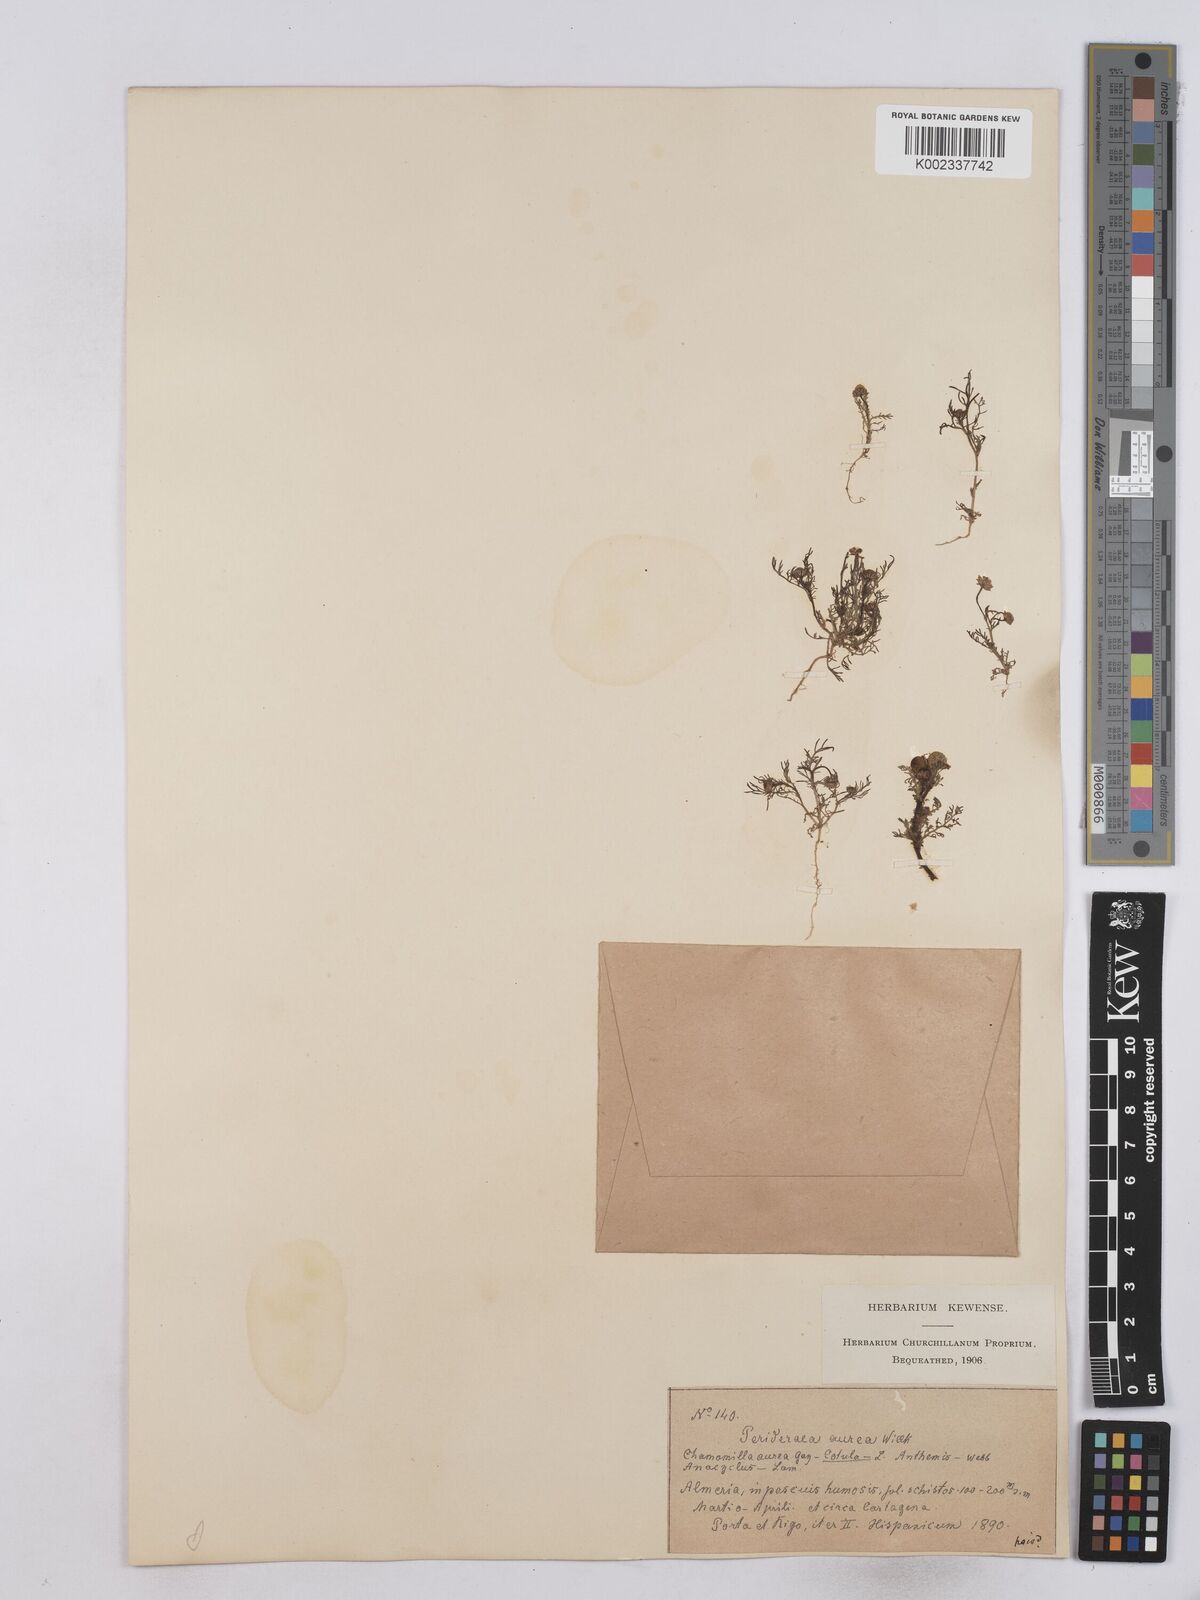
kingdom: Plantae
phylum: Tracheophyta
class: Magnoliopsida
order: Asterales
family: Asteraceae
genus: Matricaria
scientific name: Matricaria aurea
